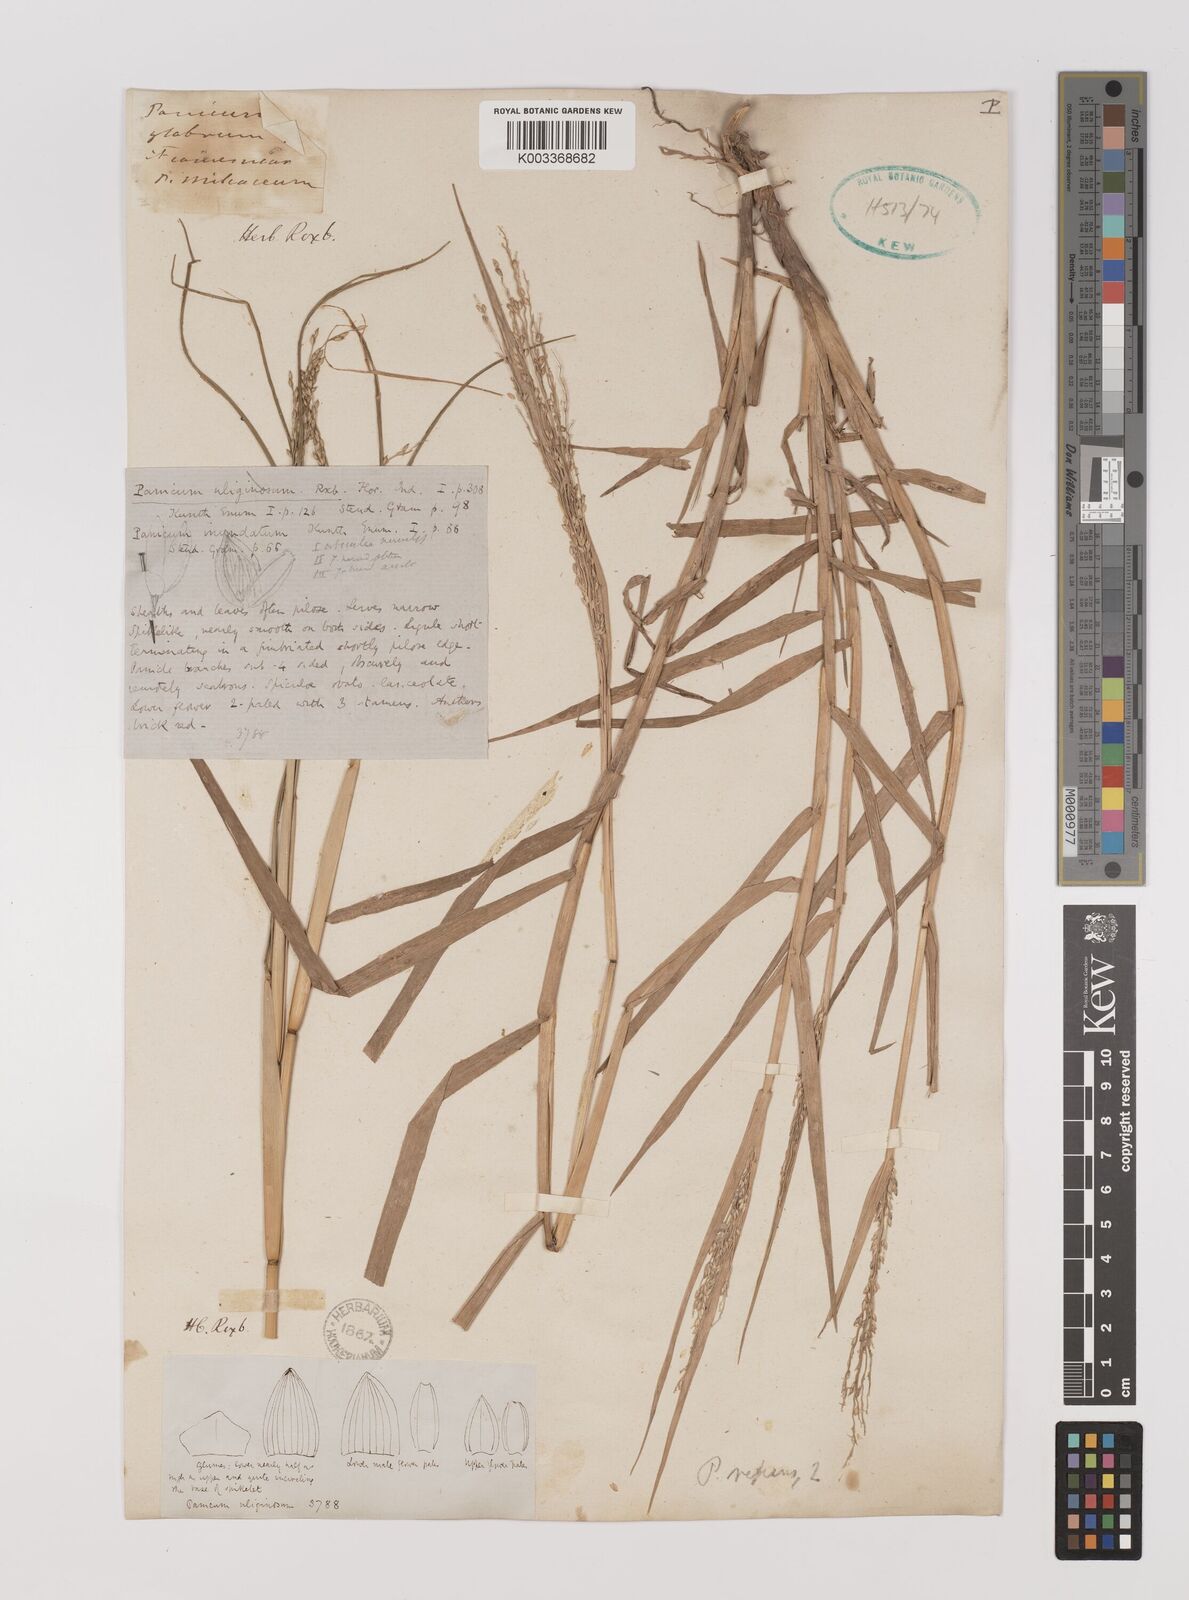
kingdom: Plantae
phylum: Tracheophyta
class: Liliopsida
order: Poales
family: Poaceae
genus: Panicum
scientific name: Panicum repens
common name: Torpedo grass
